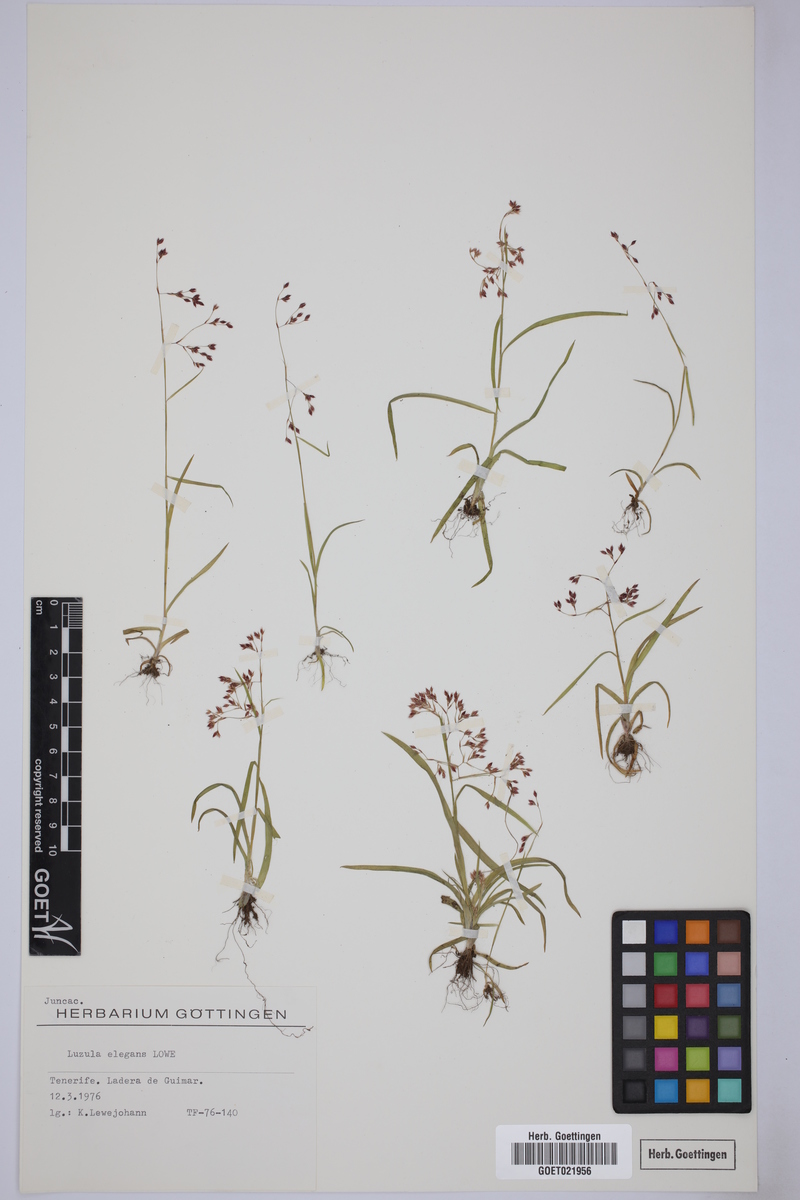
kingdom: Plantae
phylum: Tracheophyta
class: Liliopsida
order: Poales
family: Juncaceae
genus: Luzula
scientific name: Luzula elegans
